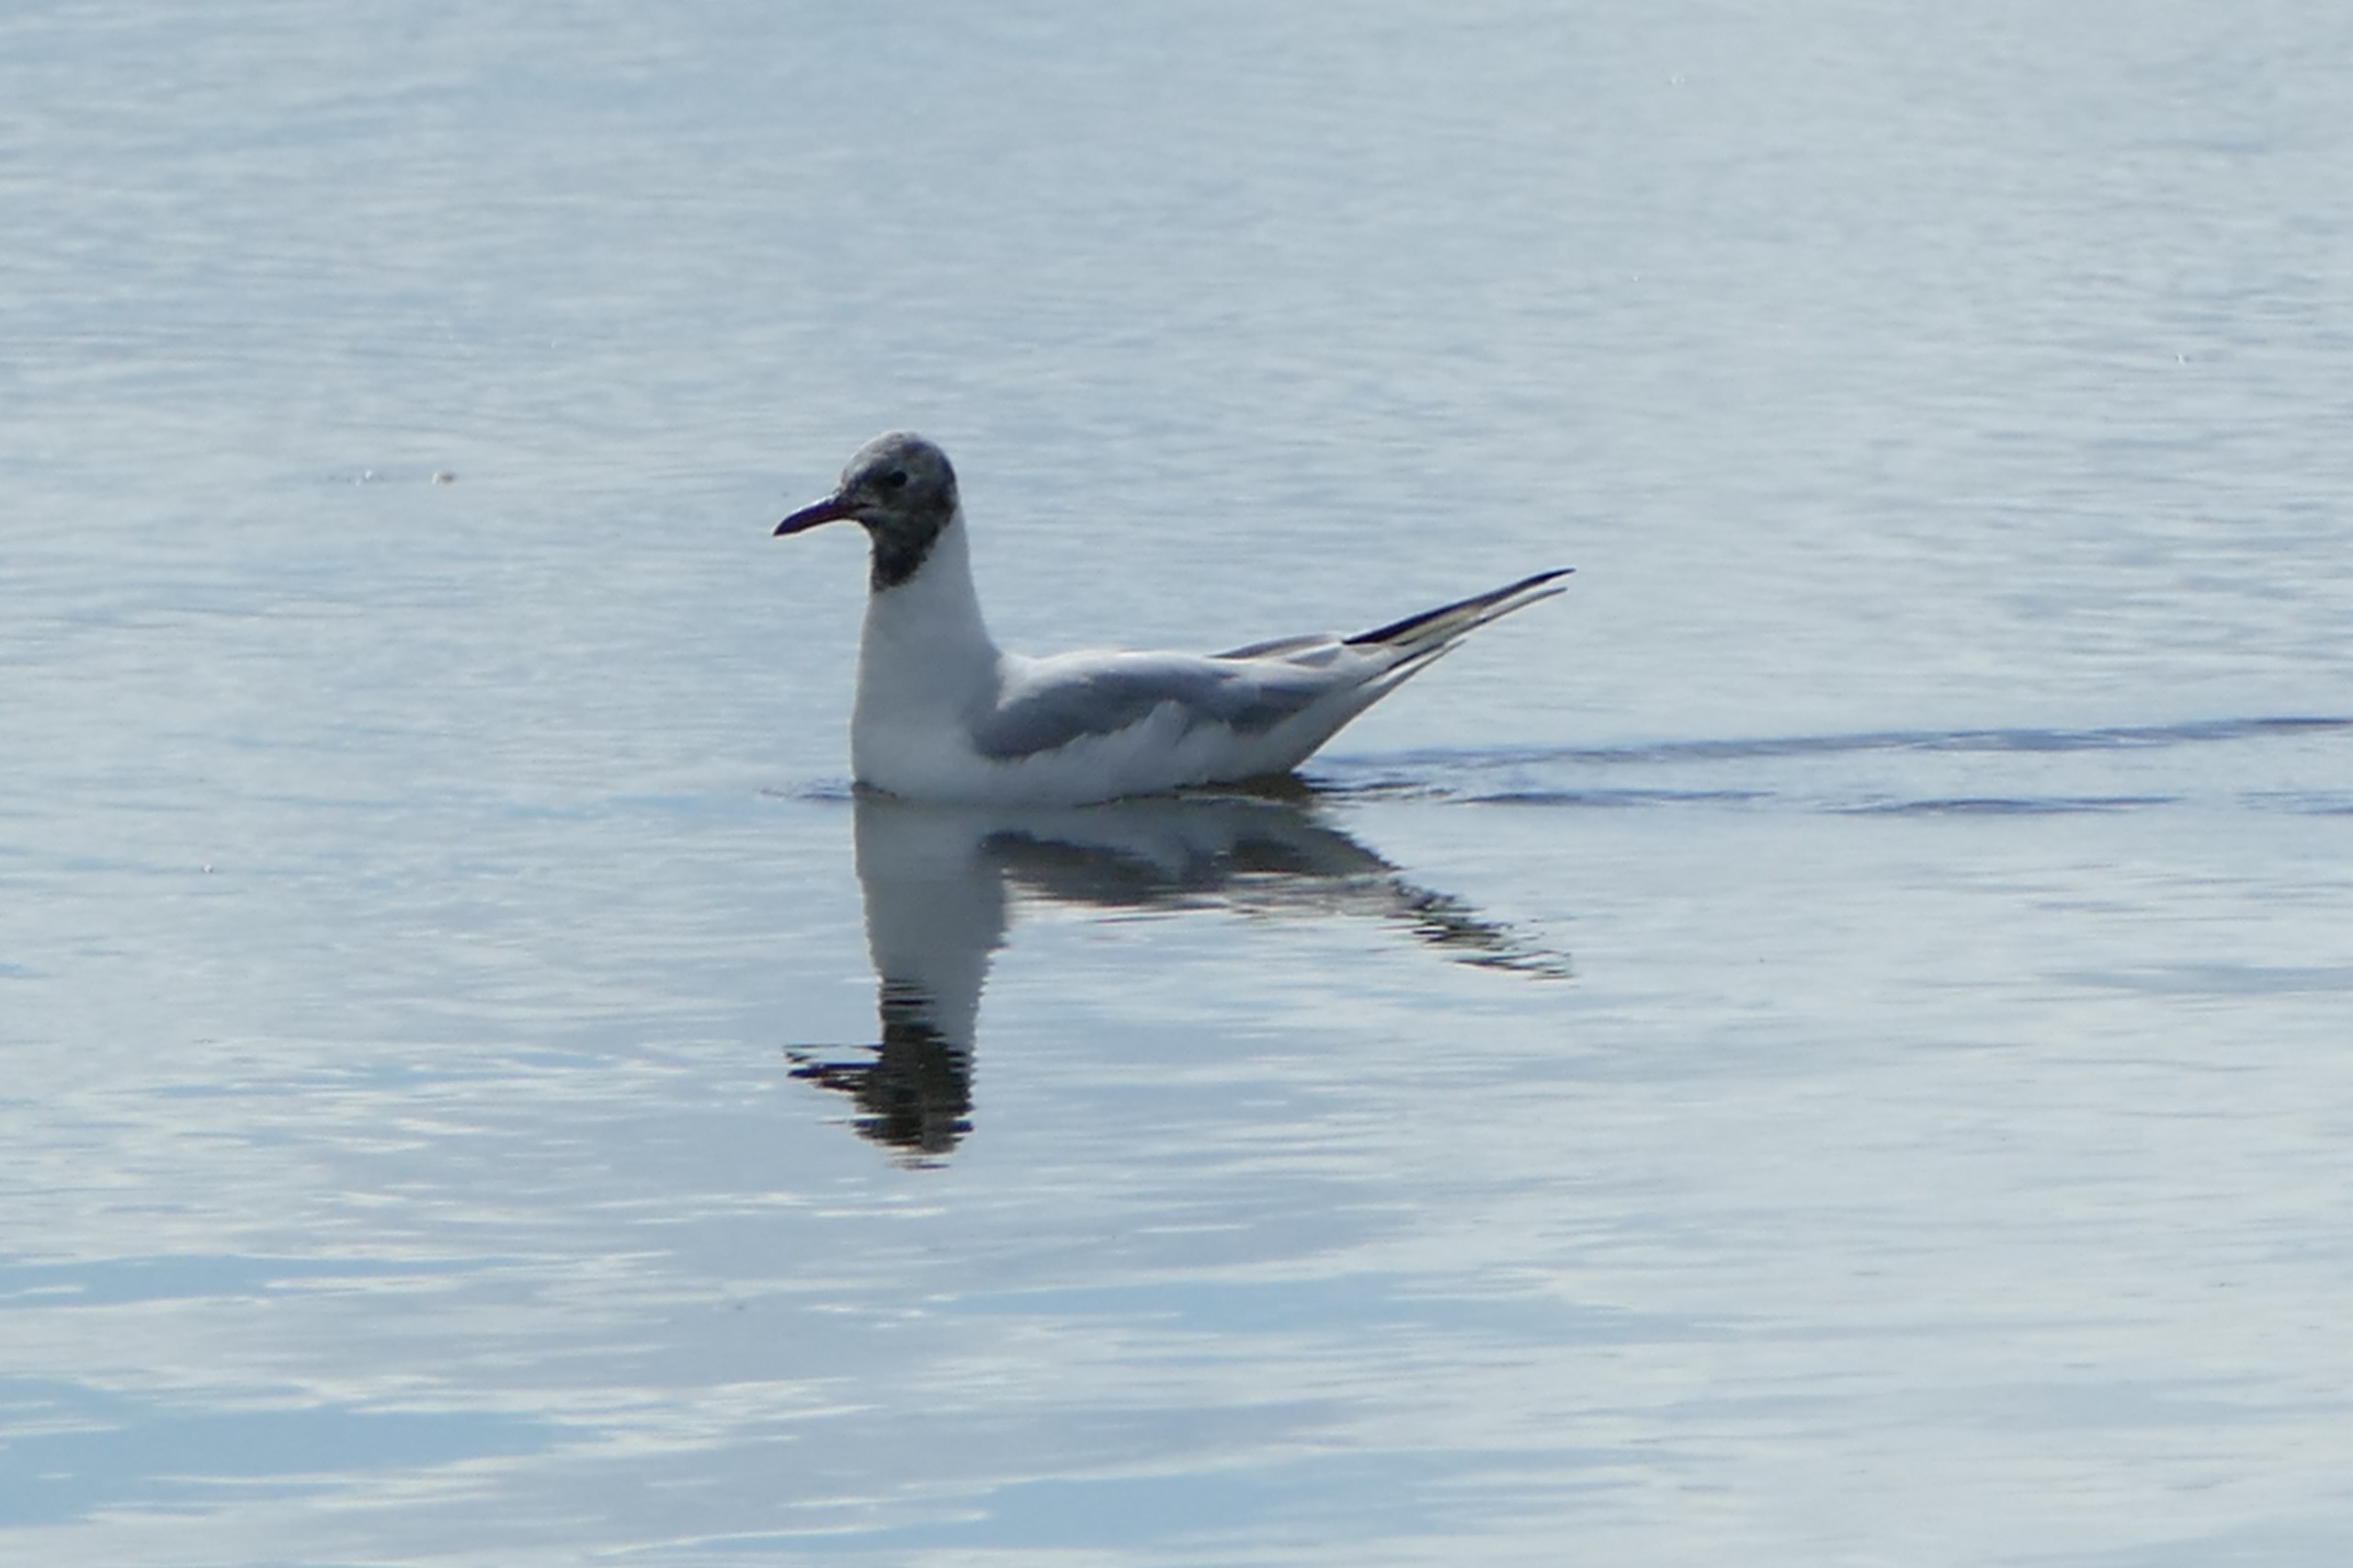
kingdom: Animalia
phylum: Chordata
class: Aves
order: Charadriiformes
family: Laridae
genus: Chroicocephalus
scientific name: Chroicocephalus ridibundus
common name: Hættemåge
